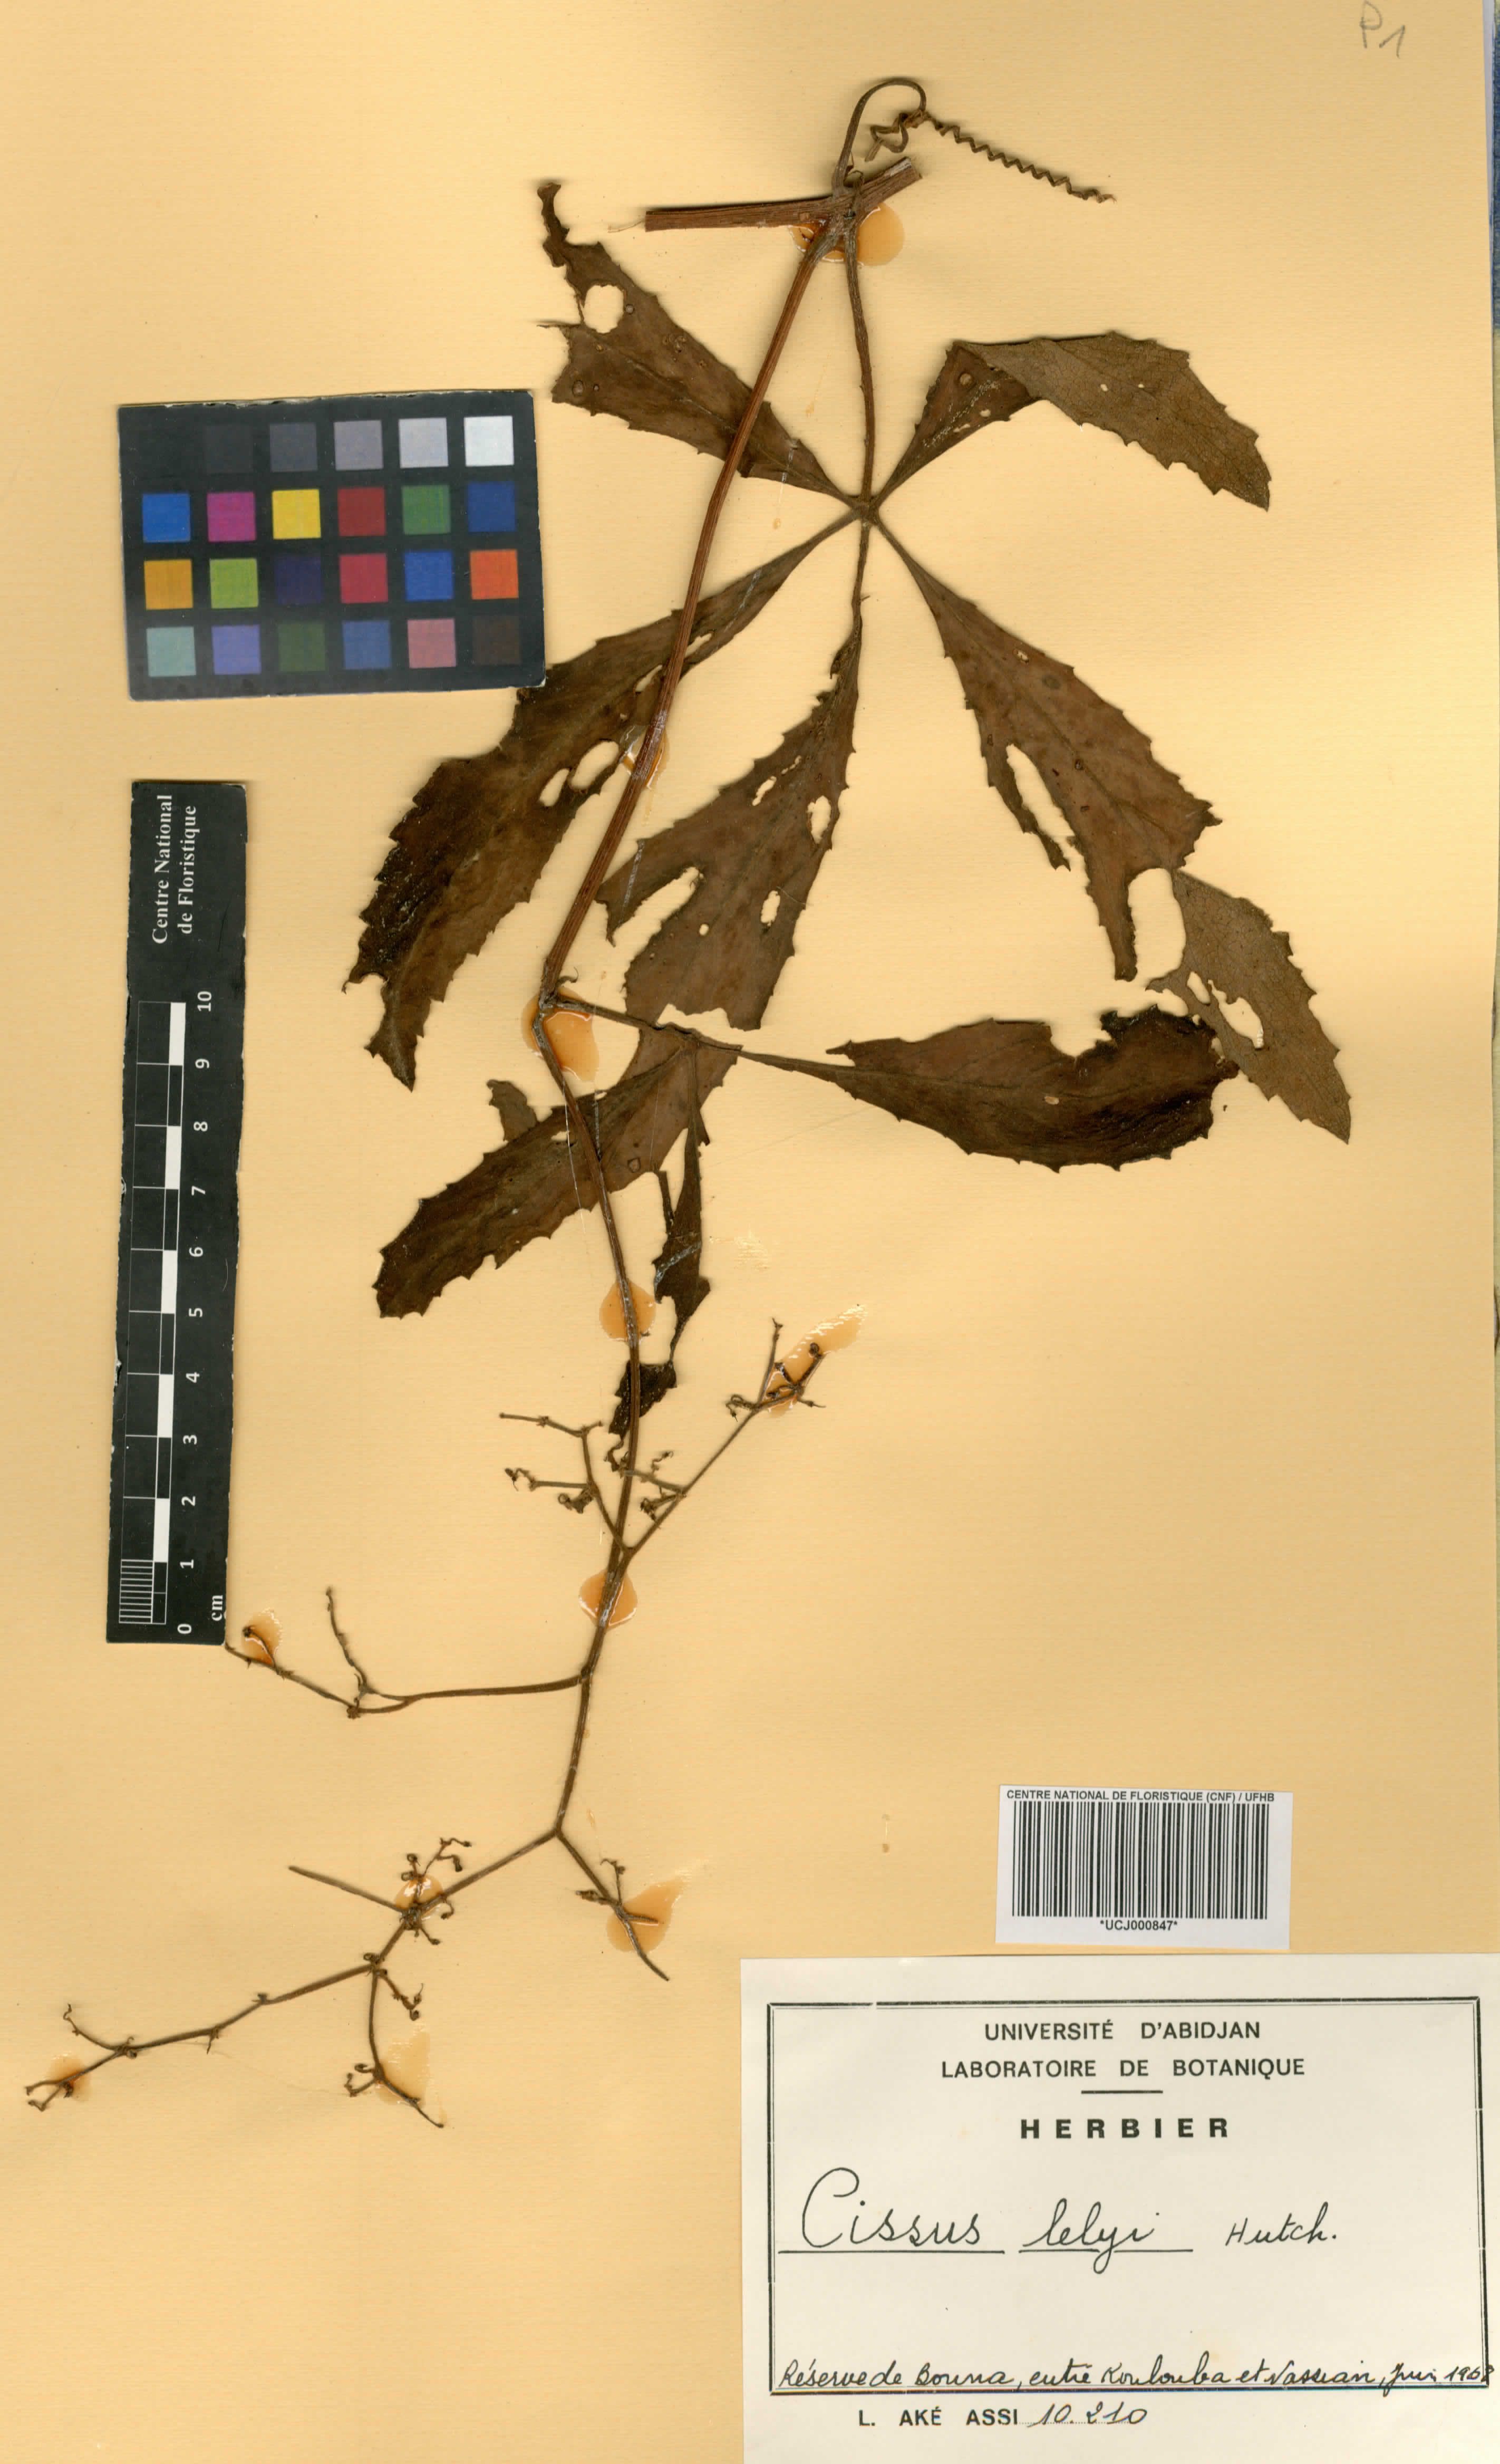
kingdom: Plantae
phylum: Tracheophyta
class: Magnoliopsida
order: Vitales
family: Vitaceae
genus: Cyphostemma
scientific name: Cyphostemma serpens
